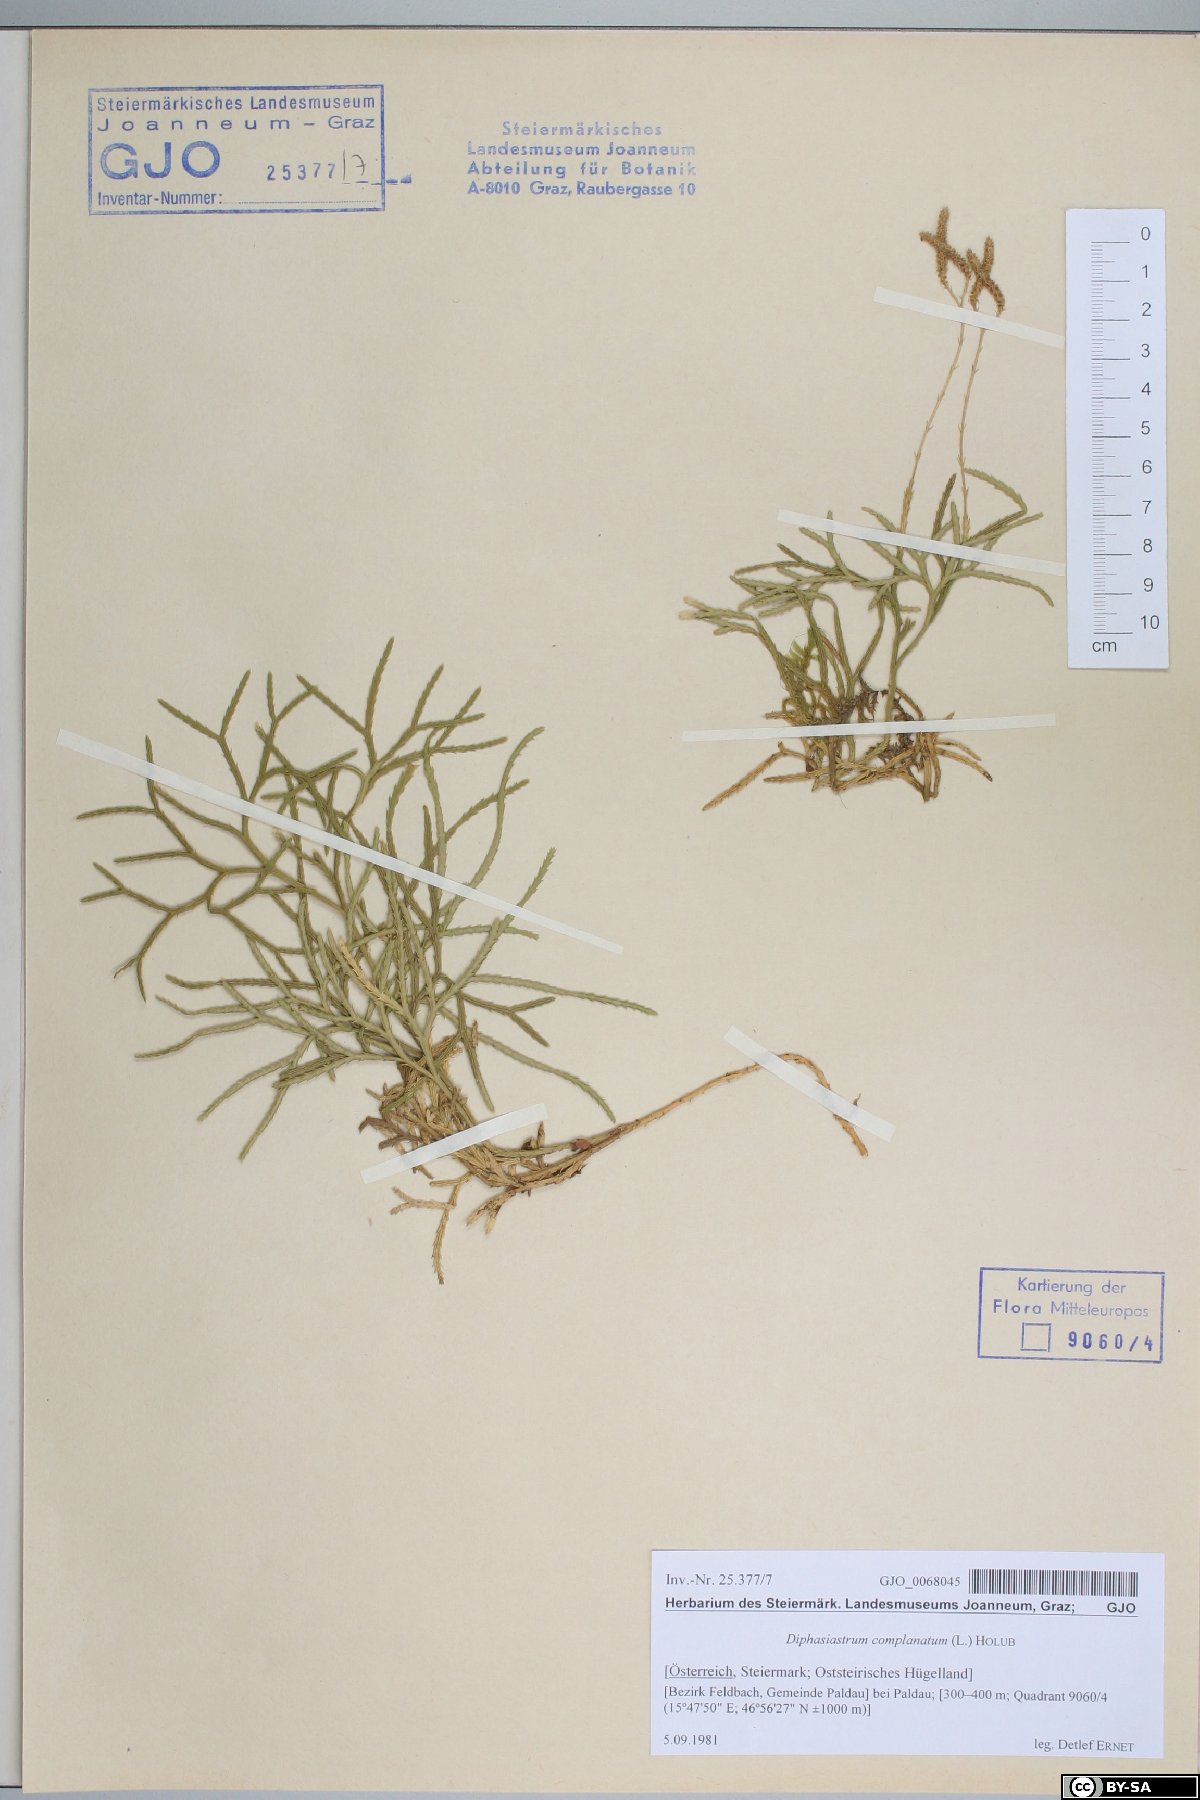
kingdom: Plantae
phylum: Tracheophyta
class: Lycopodiopsida
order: Lycopodiales
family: Lycopodiaceae
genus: Diphasiastrum
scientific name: Diphasiastrum complanatum
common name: Northern running-pine
